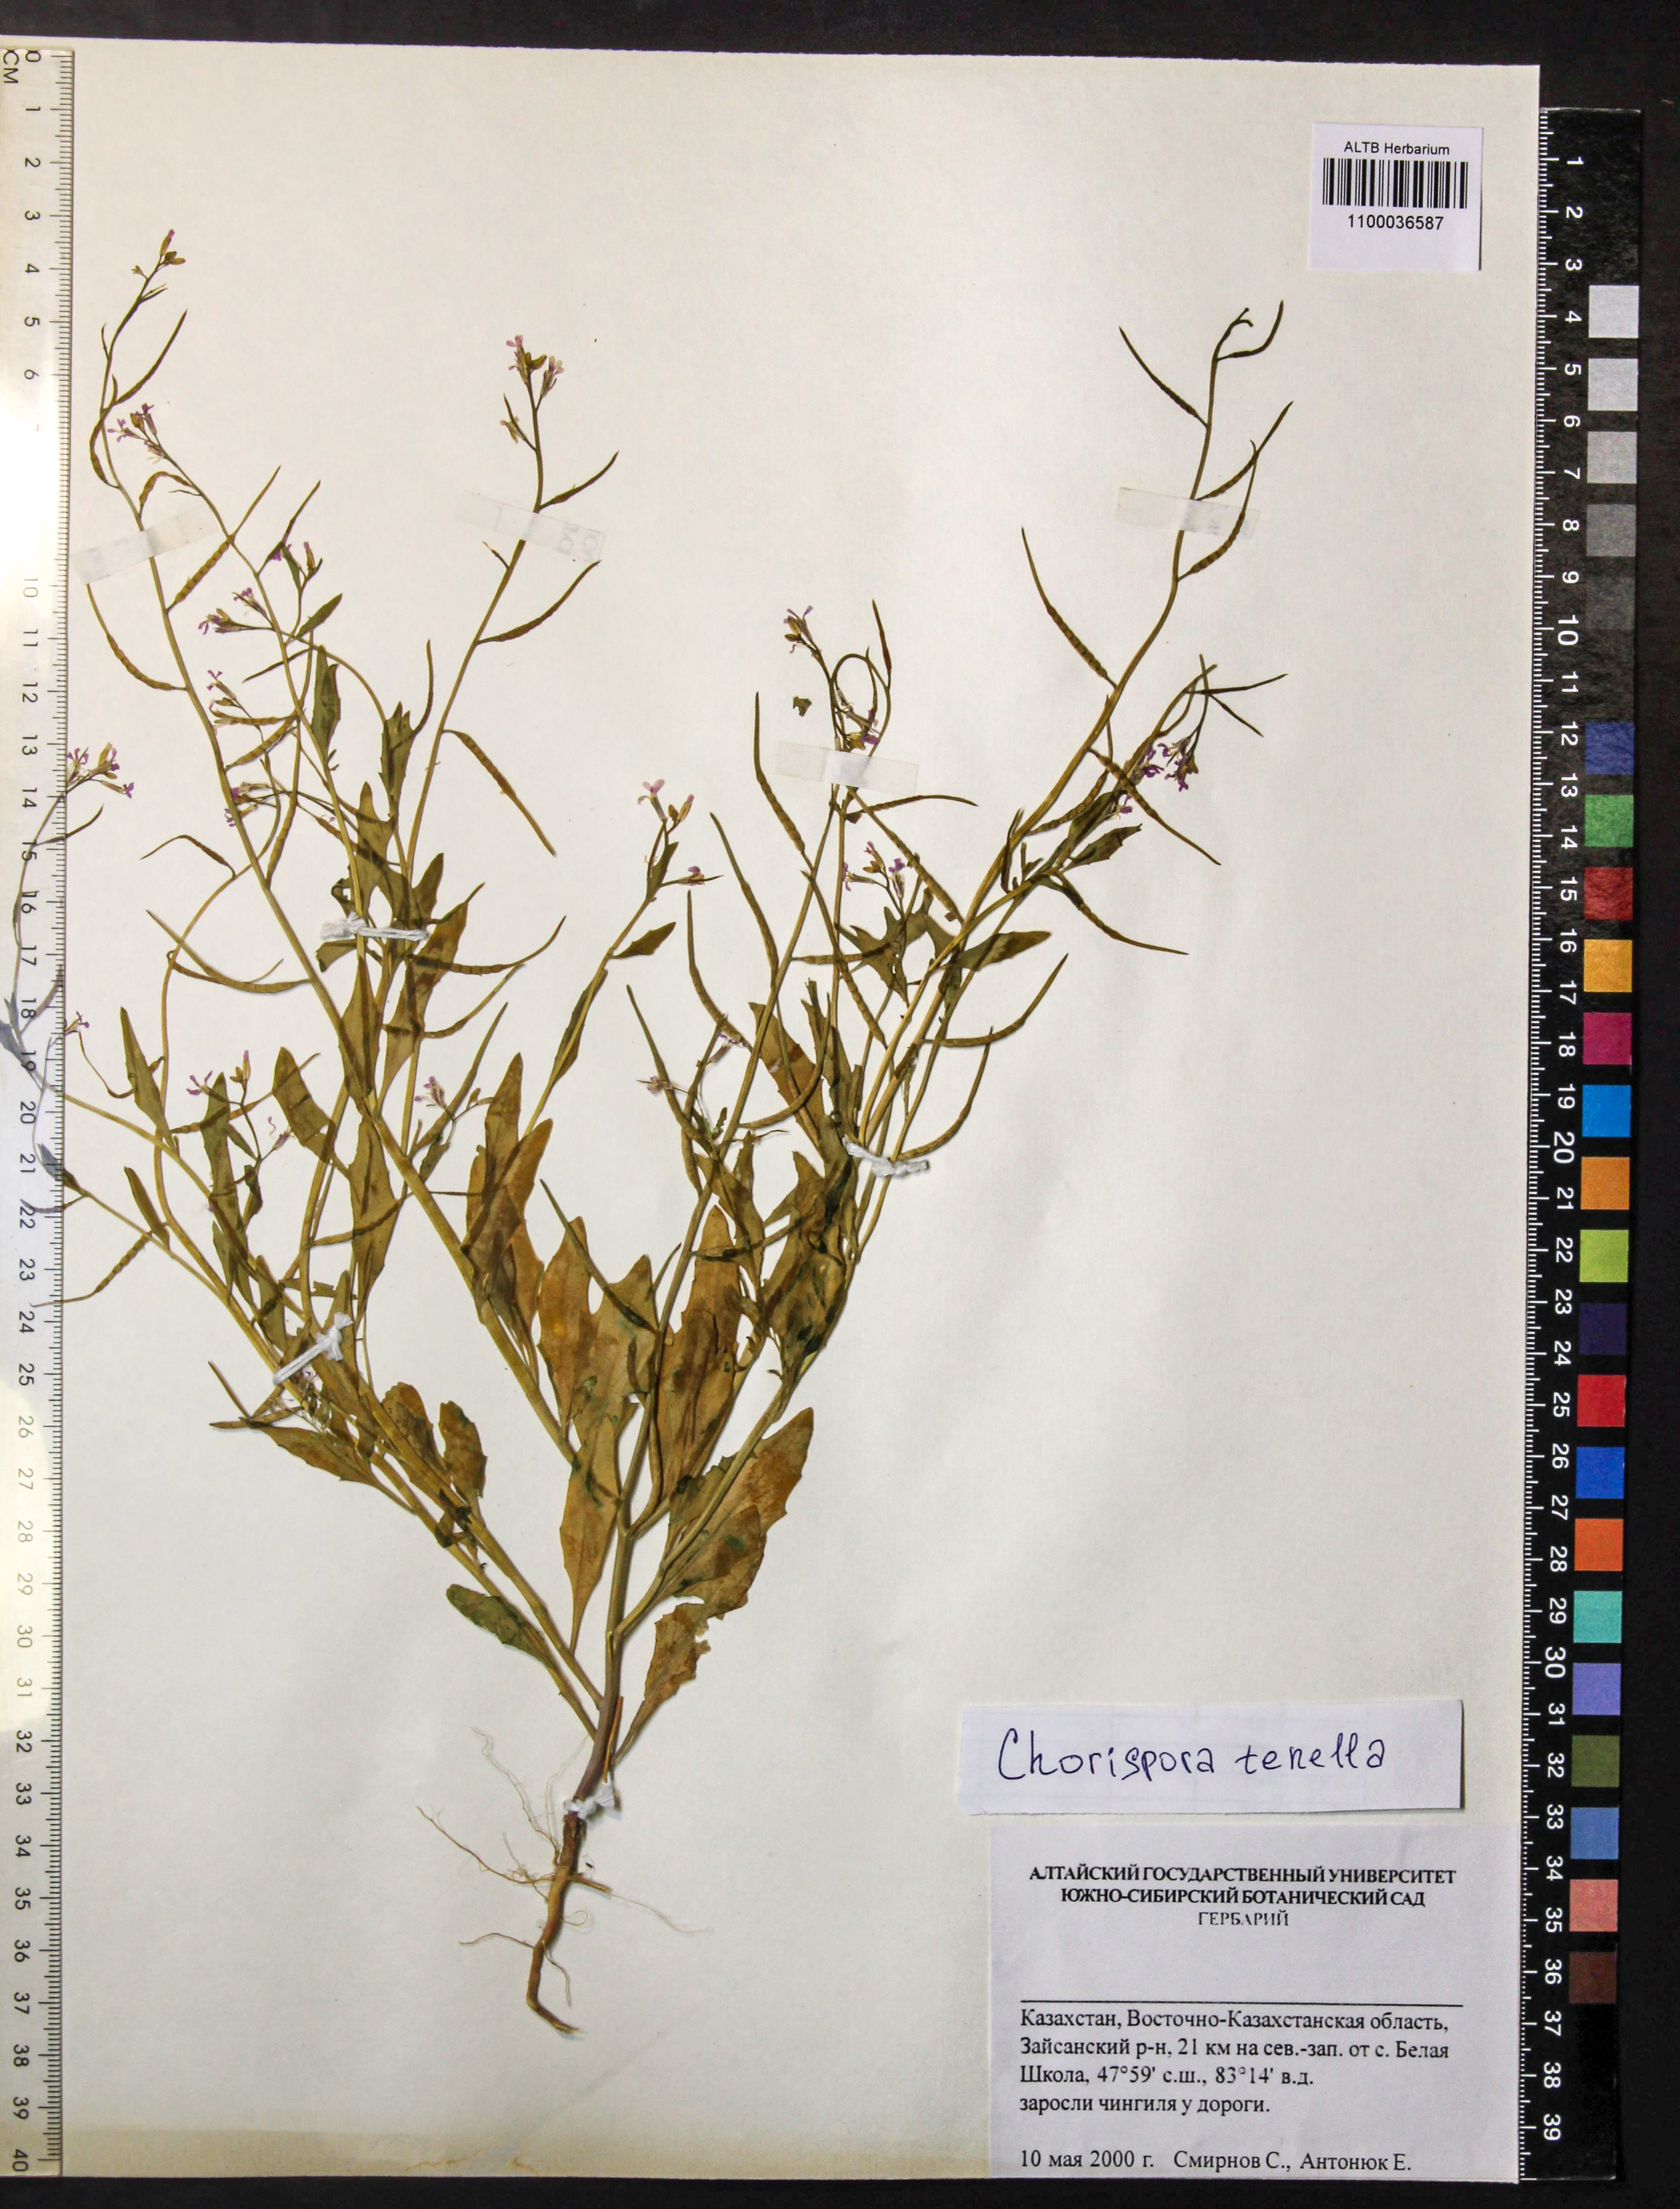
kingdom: Plantae
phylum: Tracheophyta
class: Magnoliopsida
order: Brassicales
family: Brassicaceae
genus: Chorispora
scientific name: Chorispora tenella
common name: Crossflower
